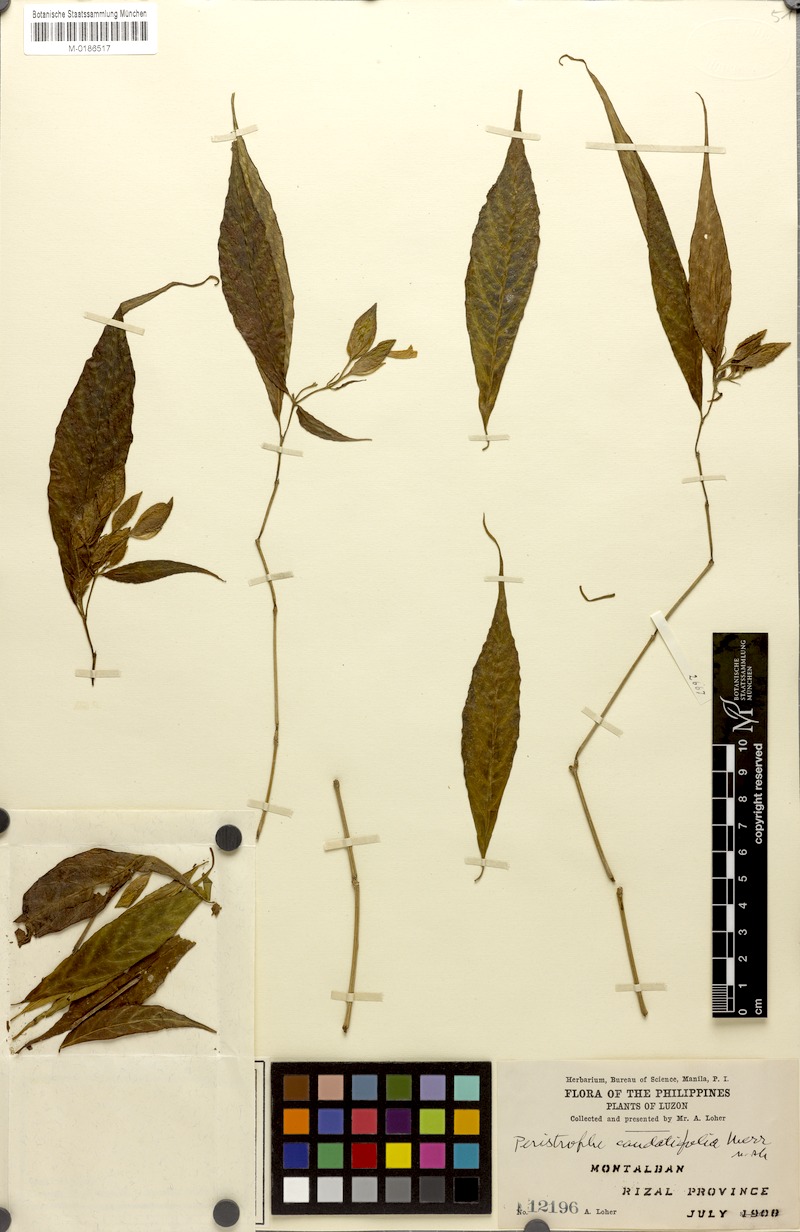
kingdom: Plantae
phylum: Tracheophyta
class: Magnoliopsida
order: Lamiales
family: Acanthaceae
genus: Dicliptera
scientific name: Dicliptera caudatifolia
